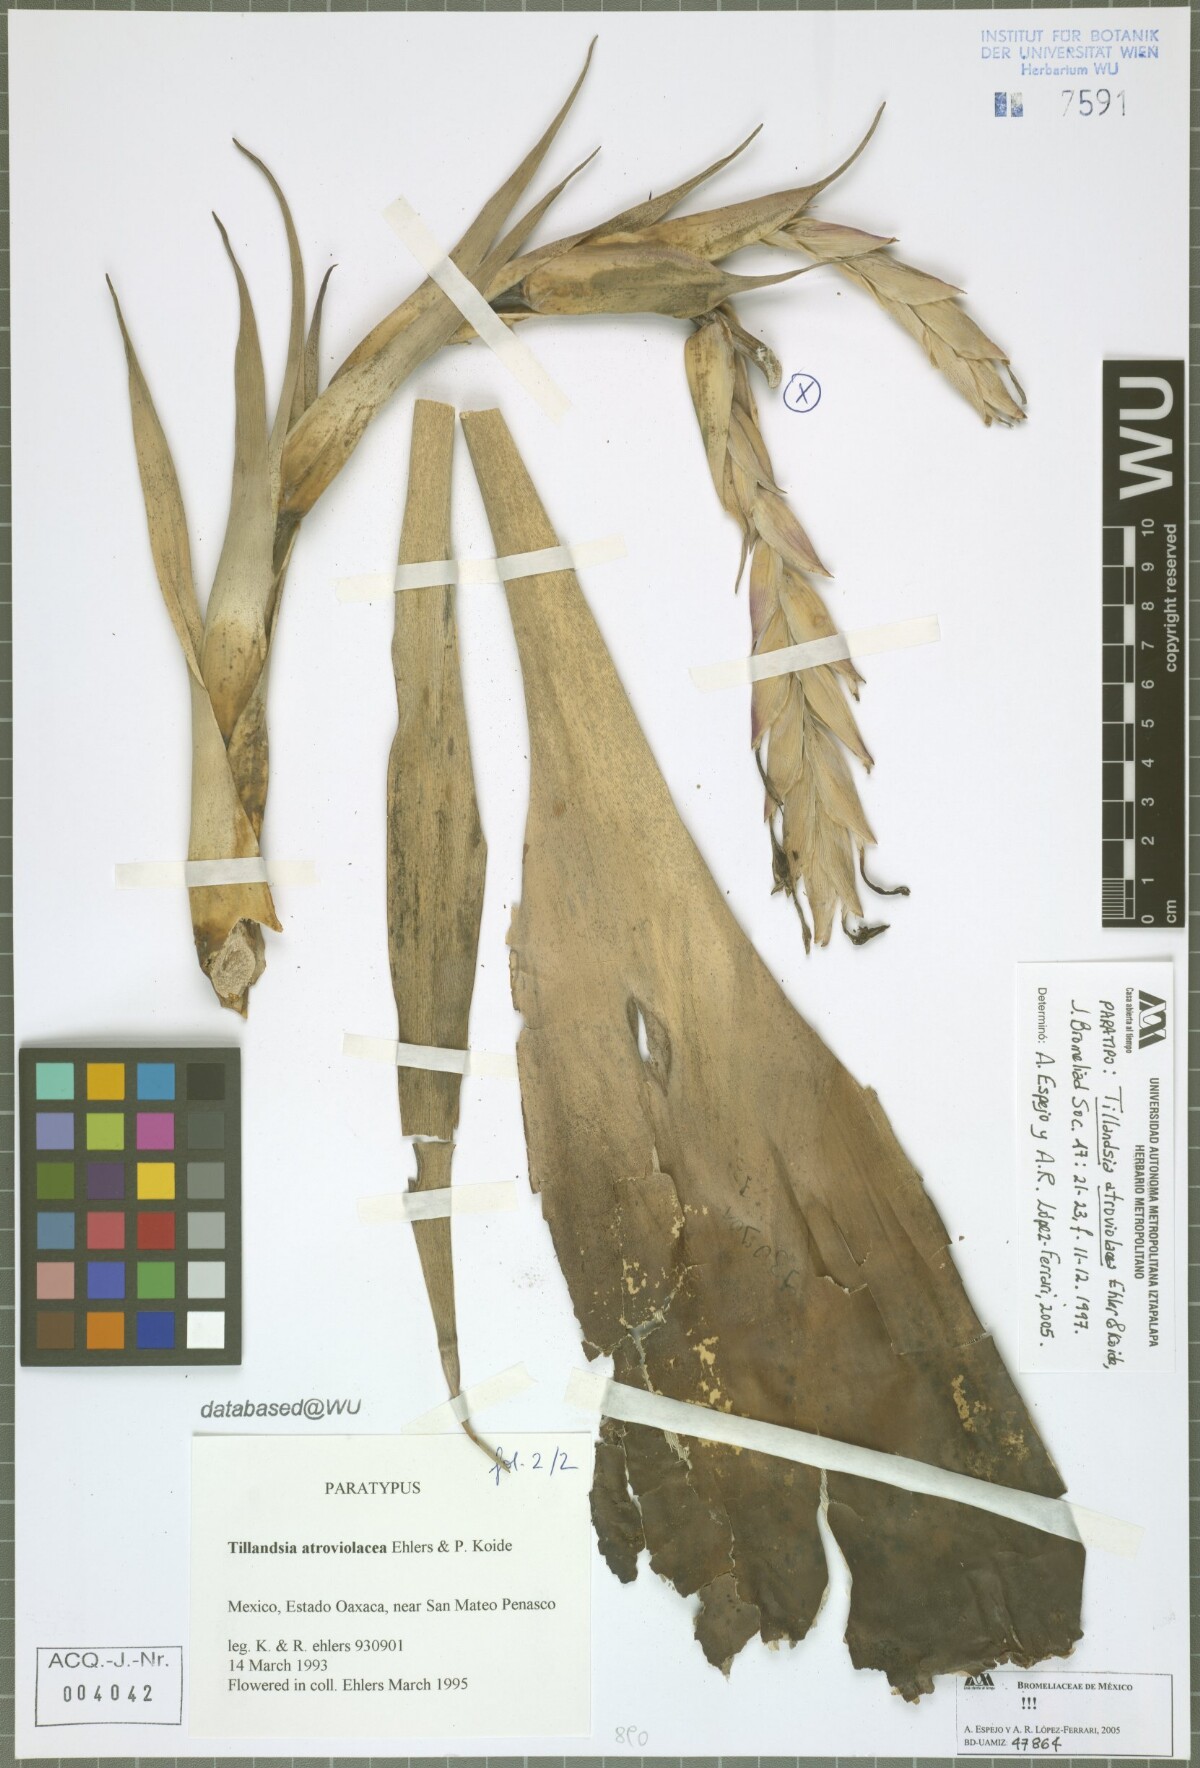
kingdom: Plantae
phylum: Tracheophyta
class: Liliopsida
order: Poales
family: Bromeliaceae
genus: Tillandsia
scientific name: Tillandsia atroviolacea
